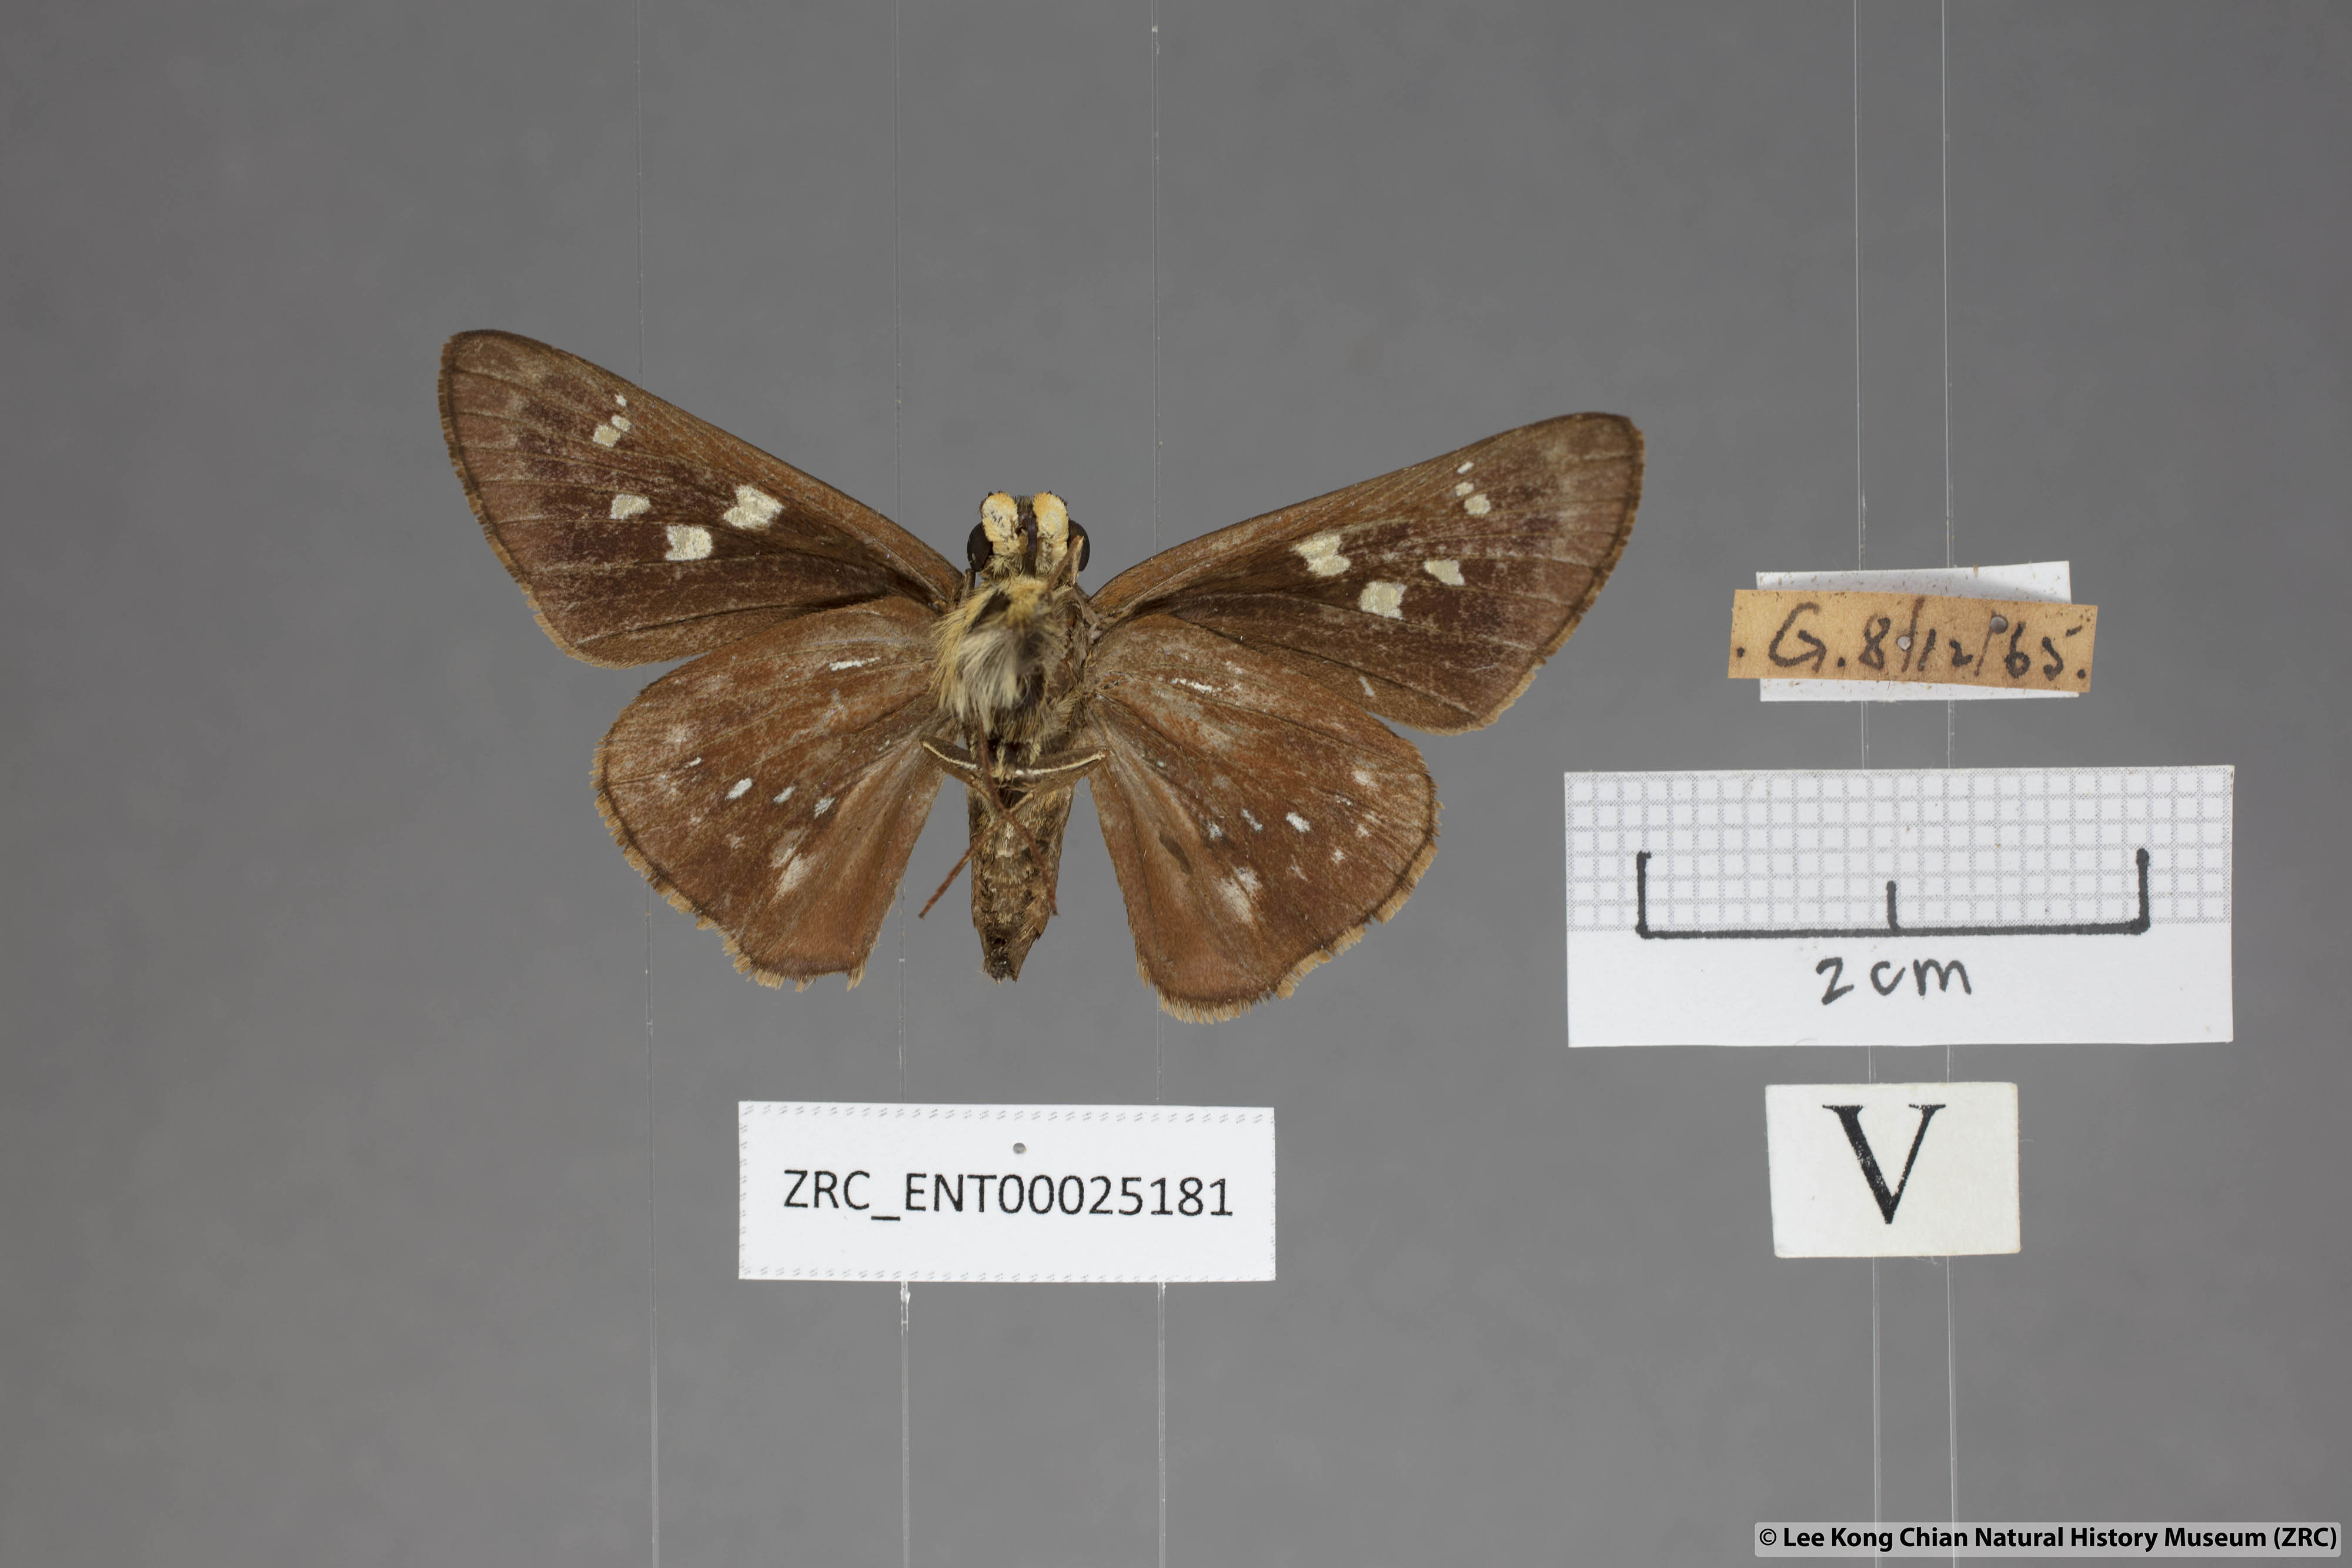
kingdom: Animalia
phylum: Arthropoda
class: Insecta
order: Lepidoptera
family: Hesperiidae
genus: Pithauria
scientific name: Pithauria marsena
